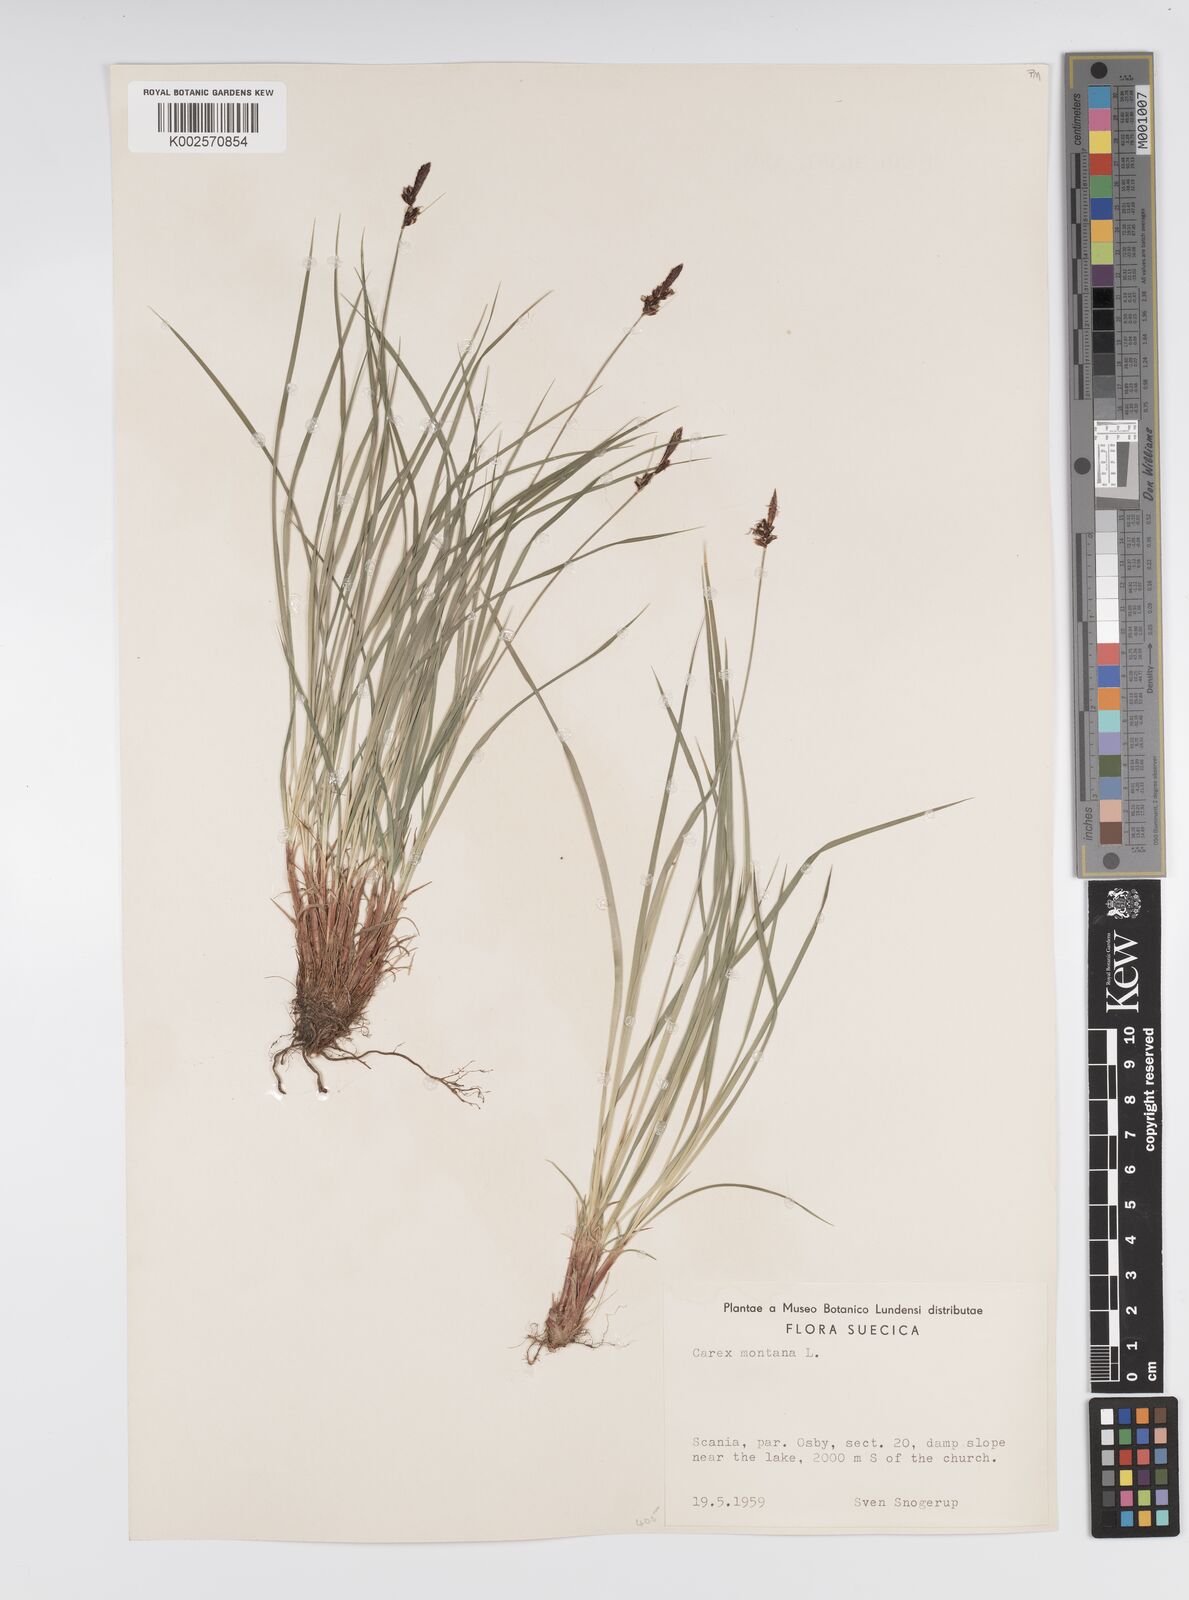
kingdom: Plantae
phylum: Tracheophyta
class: Liliopsida
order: Poales
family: Cyperaceae
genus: Carex
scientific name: Carex montana
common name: Soft-leaved sedge
